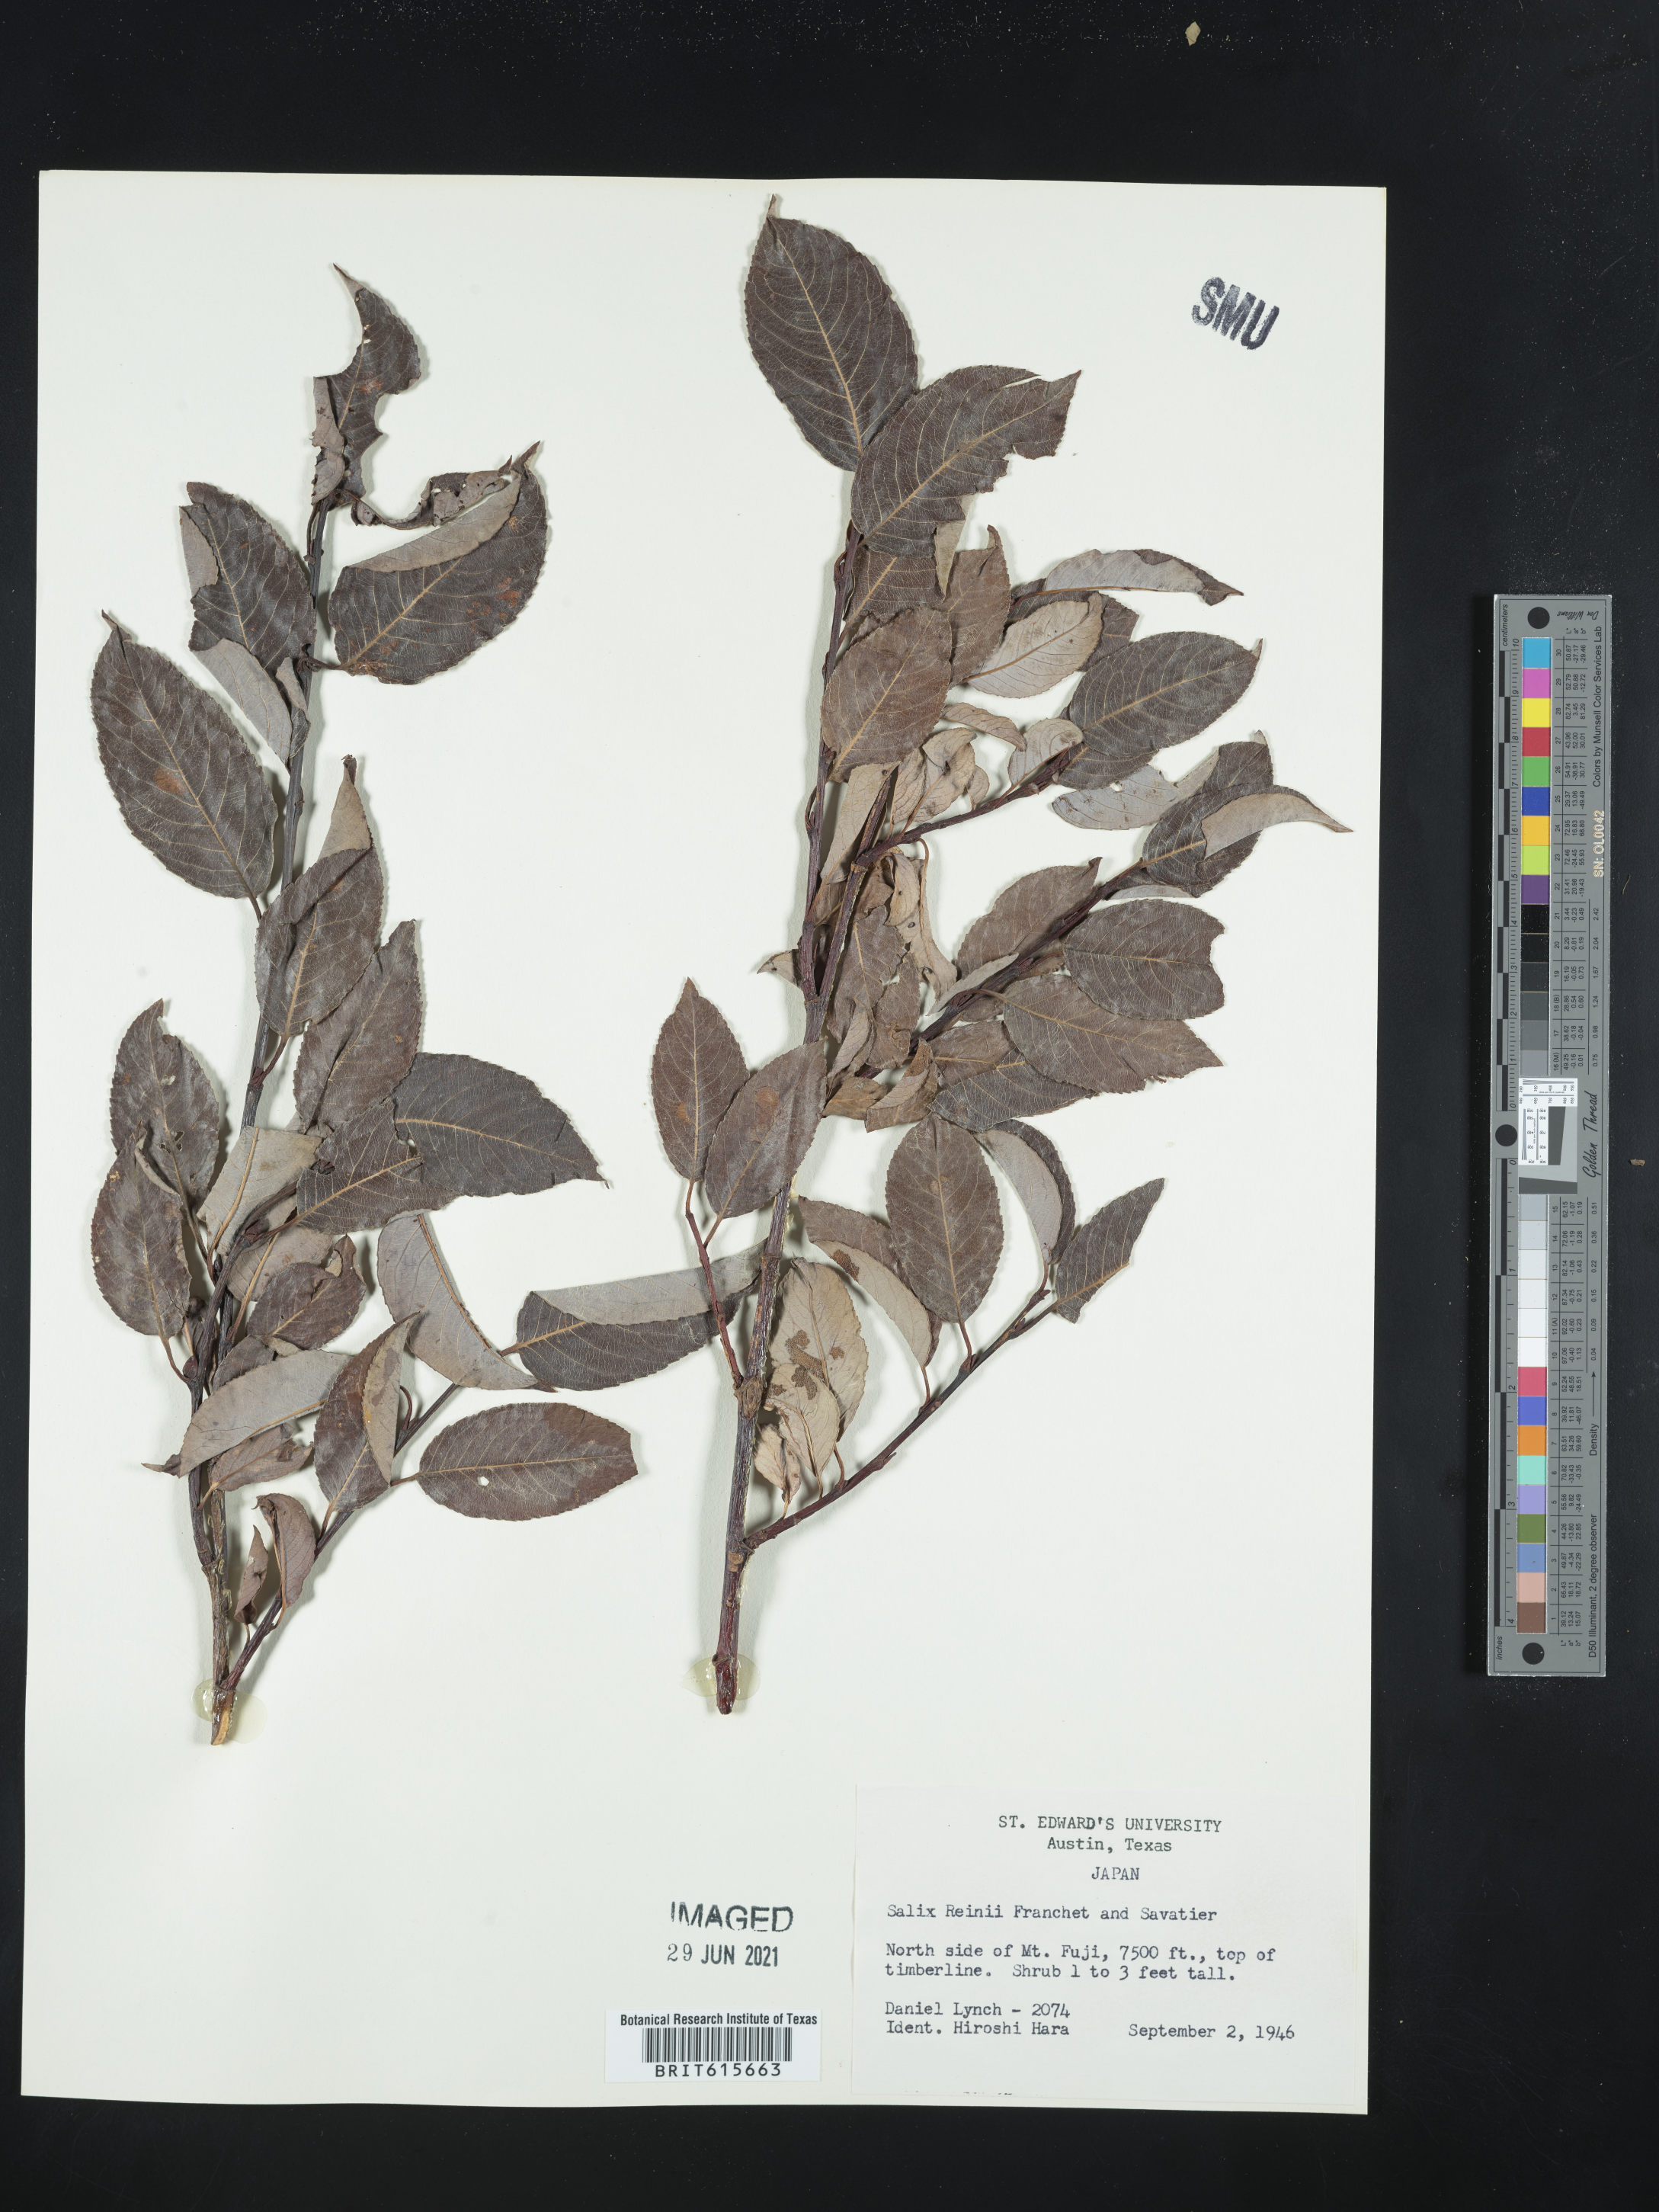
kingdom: Plantae
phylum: Tracheophyta
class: Magnoliopsida
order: Malpighiales
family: Salicaceae
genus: Salix
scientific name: Salix reinii
